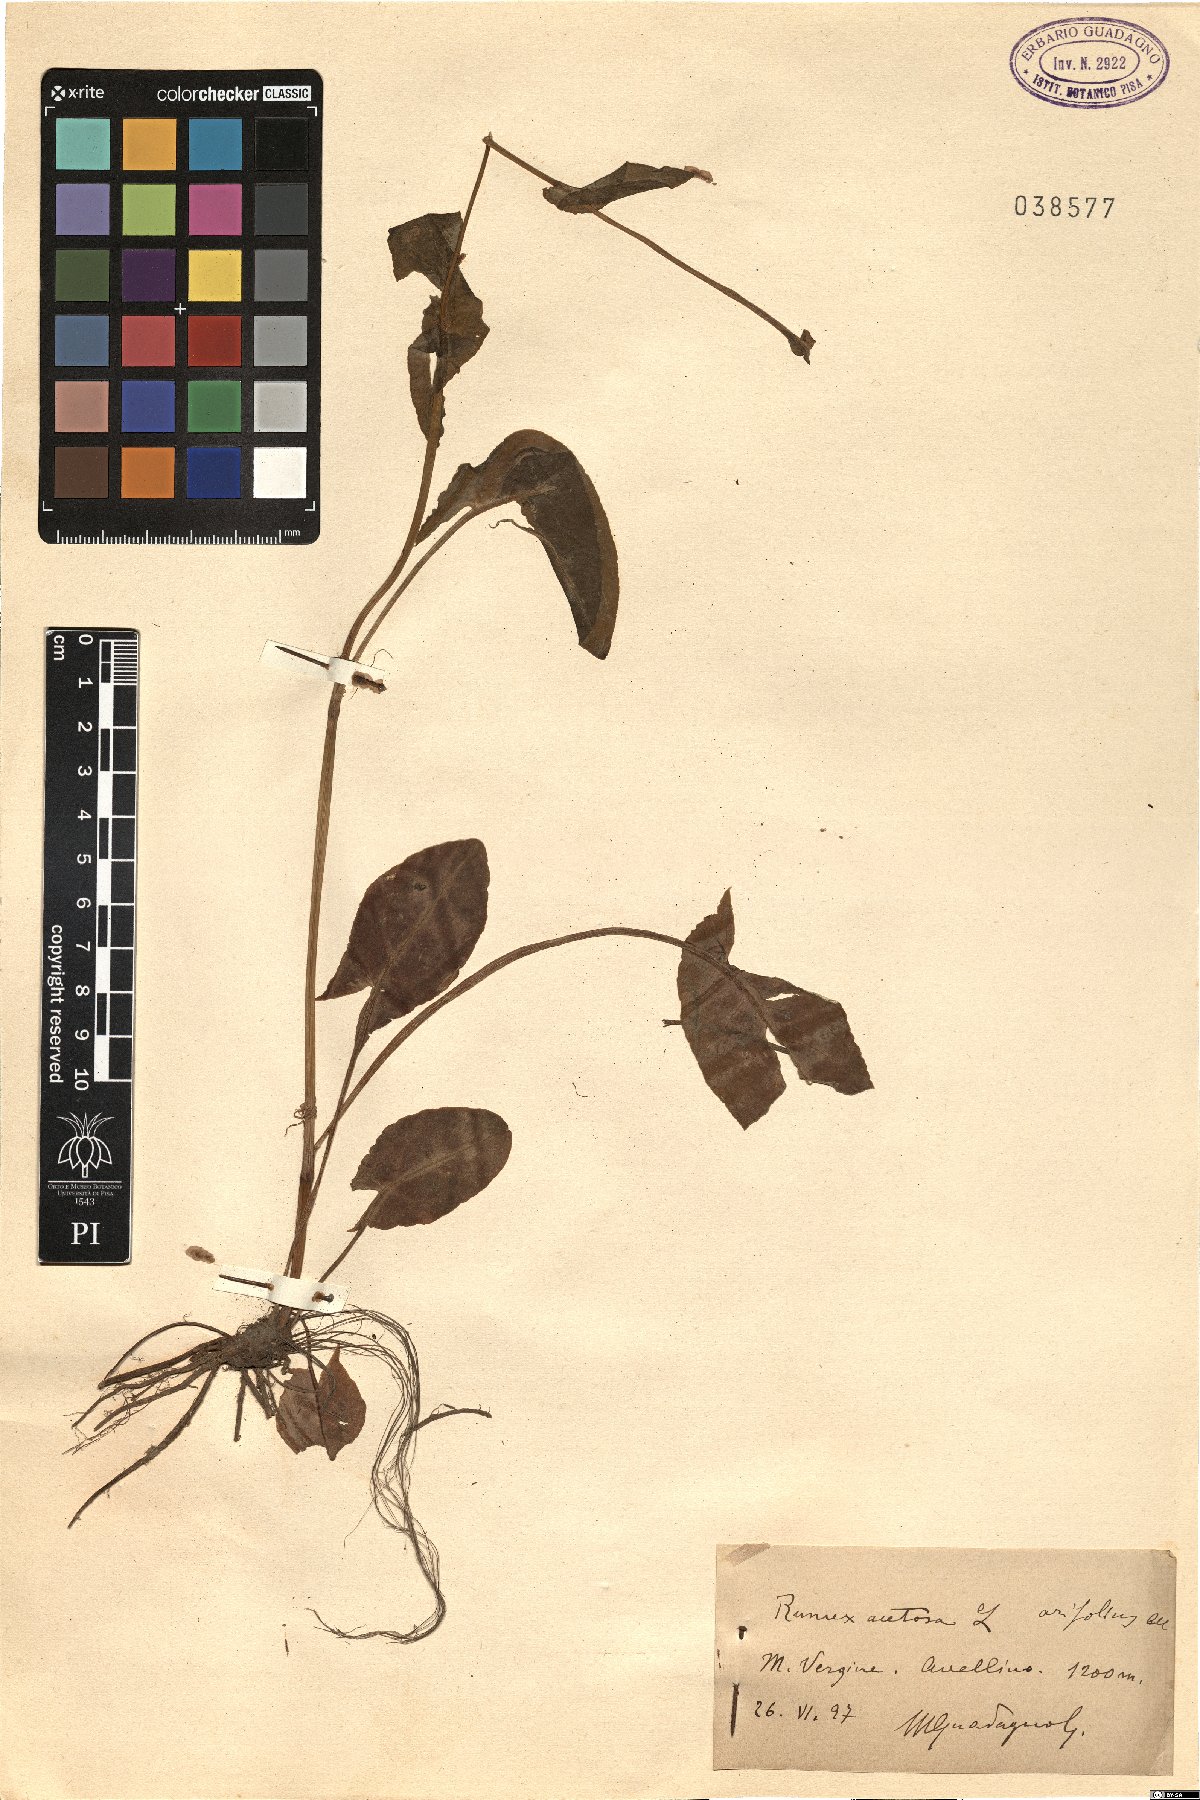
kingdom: Plantae
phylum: Tracheophyta
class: Magnoliopsida
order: Caryophyllales
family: Polygonaceae
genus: Rumex
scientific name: Rumex arifolius
